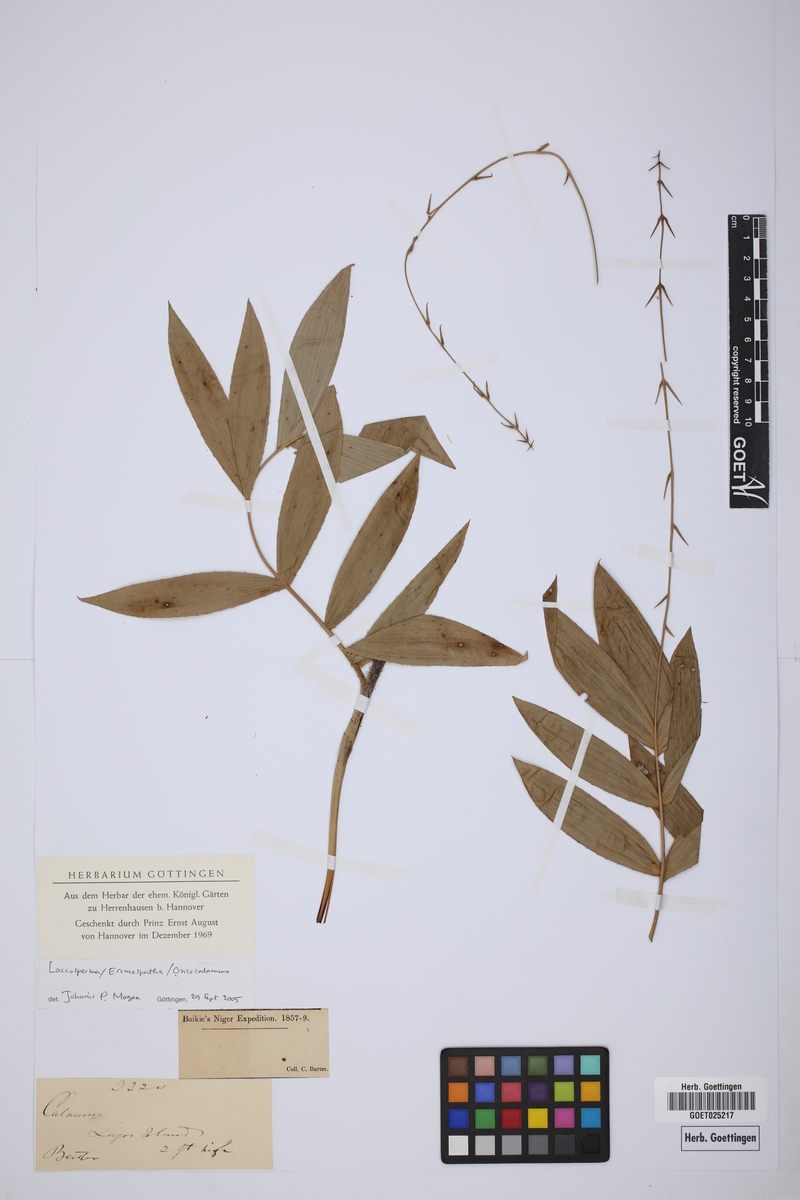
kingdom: Plantae
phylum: Tracheophyta
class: Liliopsida
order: Arecales
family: Arecaceae
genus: Laccosperma
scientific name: Laccosperma
